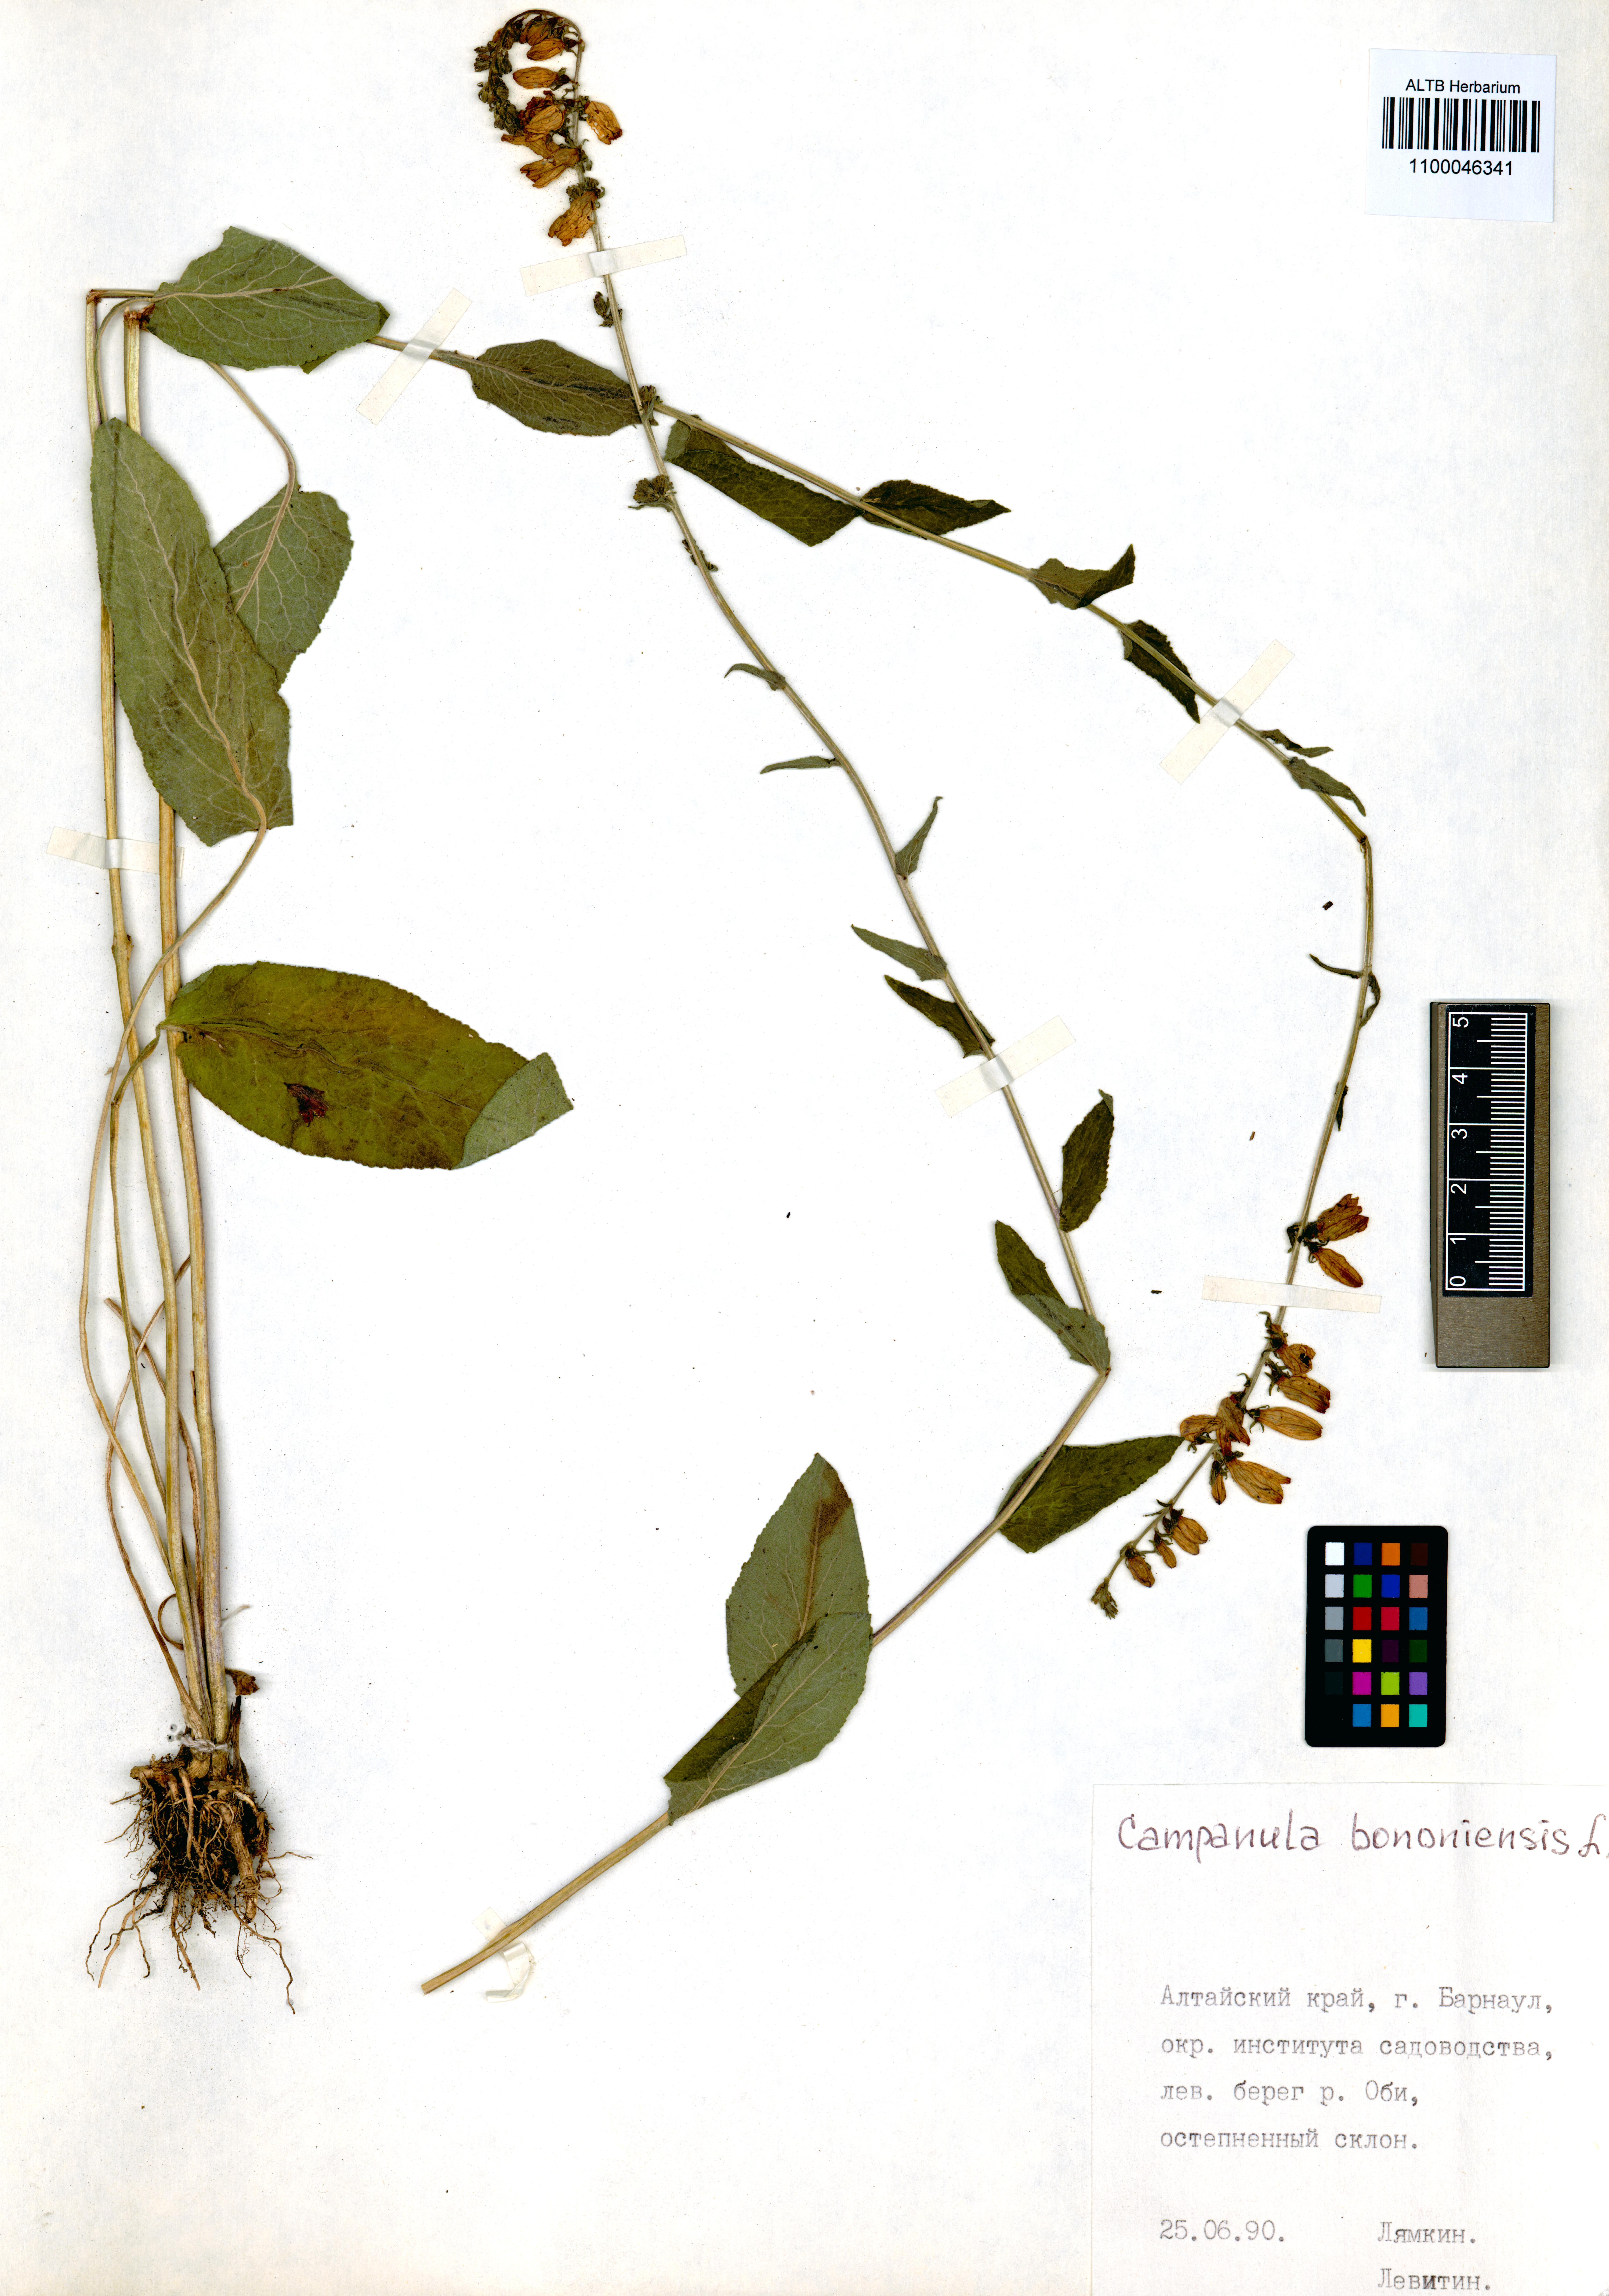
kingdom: Plantae
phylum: Tracheophyta
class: Magnoliopsida
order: Asterales
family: Campanulaceae
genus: Campanula
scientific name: Campanula bononiensis
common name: Pale bellflower
